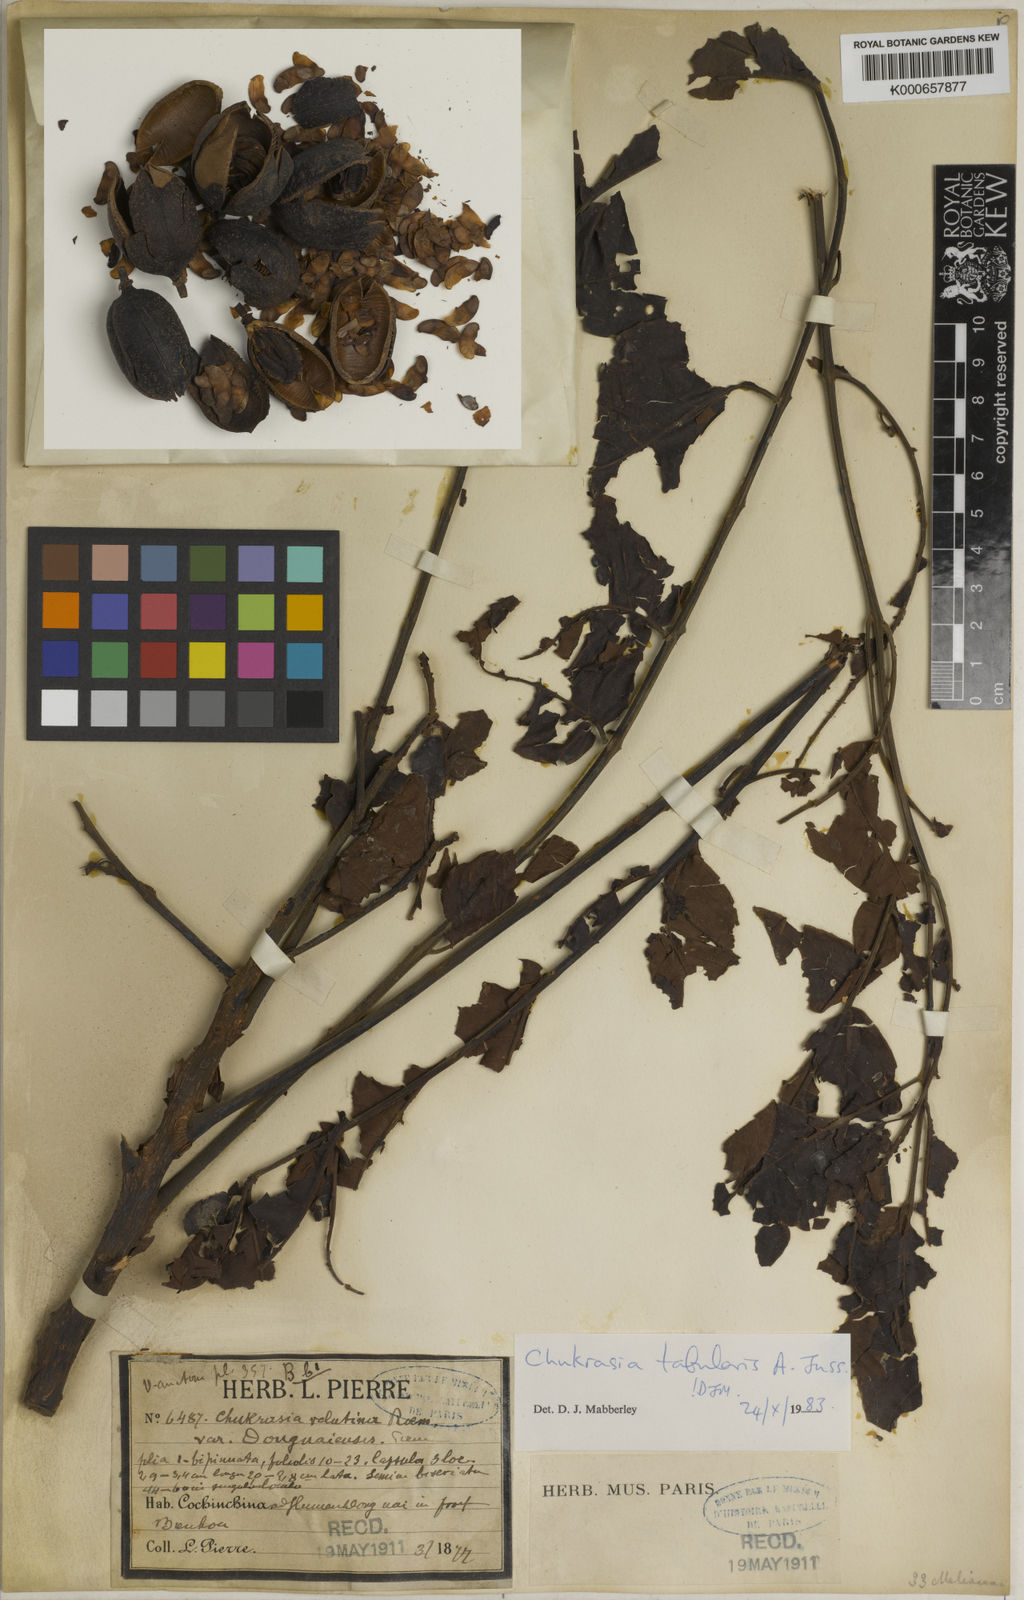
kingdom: Plantae
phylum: Tracheophyta
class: Magnoliopsida
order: Sapindales
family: Meliaceae
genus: Chukrasia
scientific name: Chukrasia tabularis
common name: Chittagong wood
